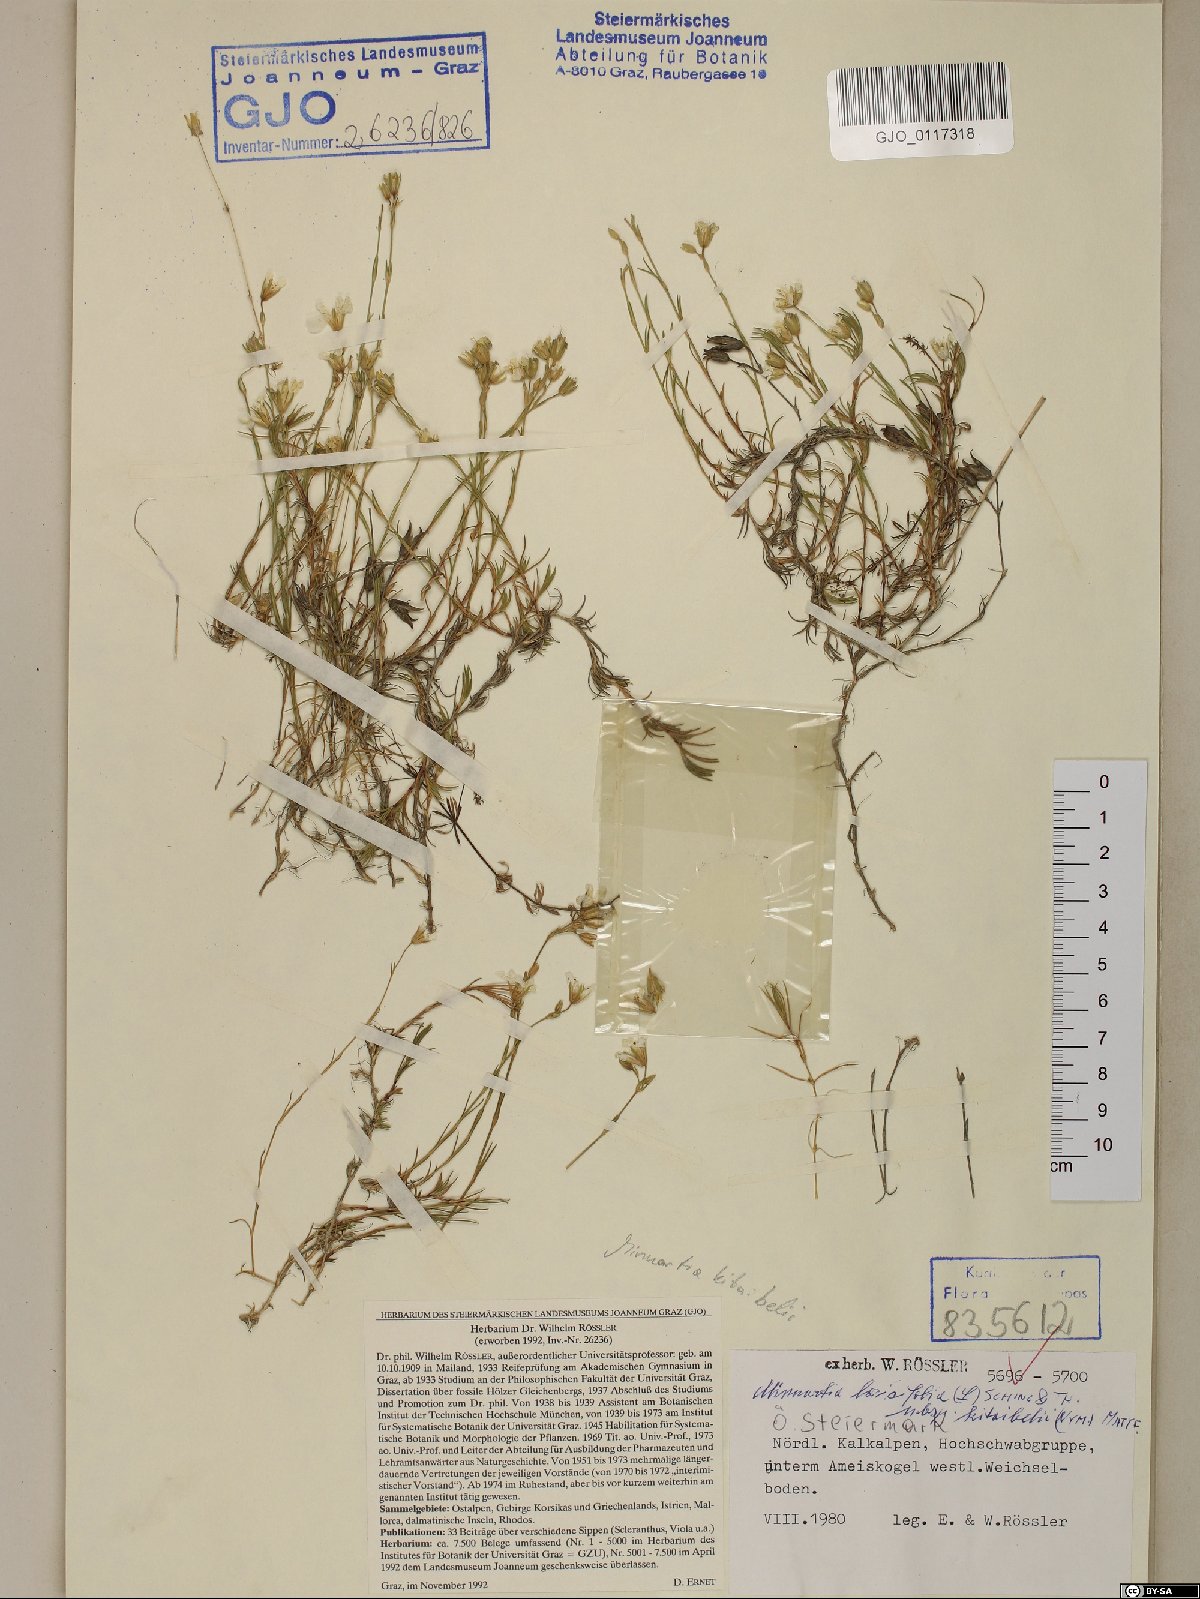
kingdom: Plantae
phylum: Tracheophyta
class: Magnoliopsida
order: Caryophyllales
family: Caryophyllaceae
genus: Cherleria
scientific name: Cherleria langii
